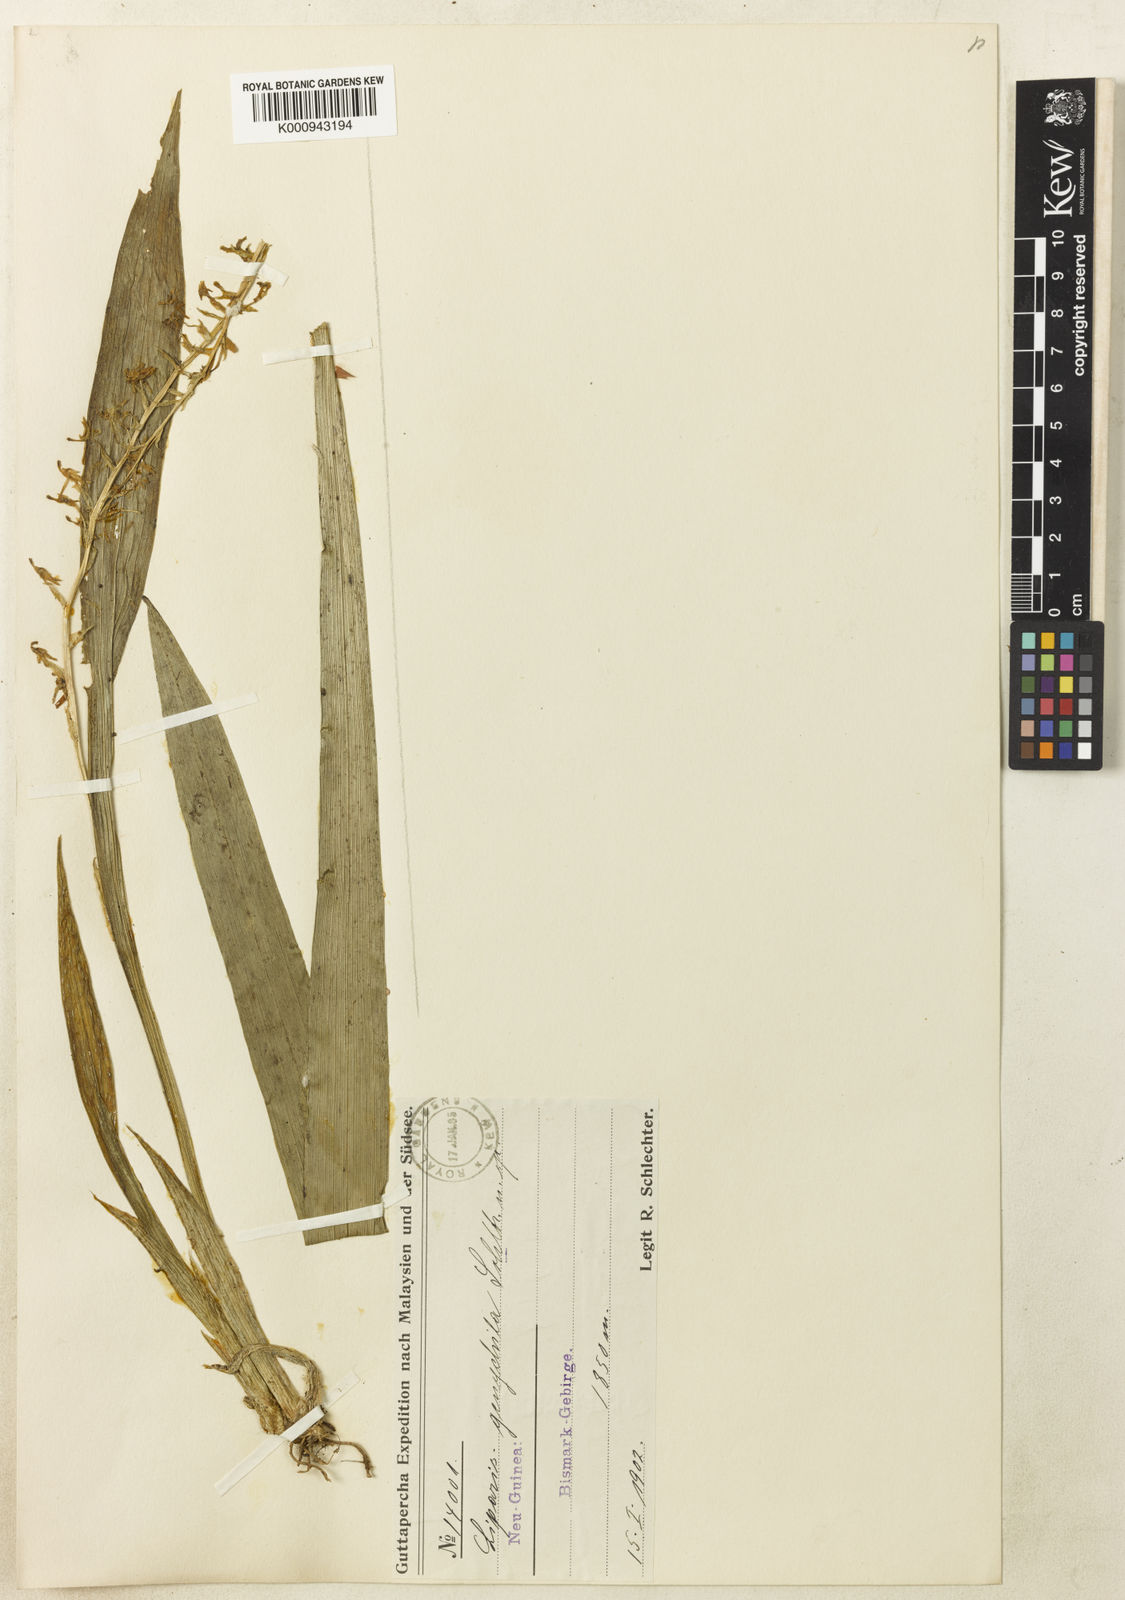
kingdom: Plantae
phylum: Tracheophyta
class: Liliopsida
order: Asparagales
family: Orchidaceae
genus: Liparis
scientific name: Liparis genychila
